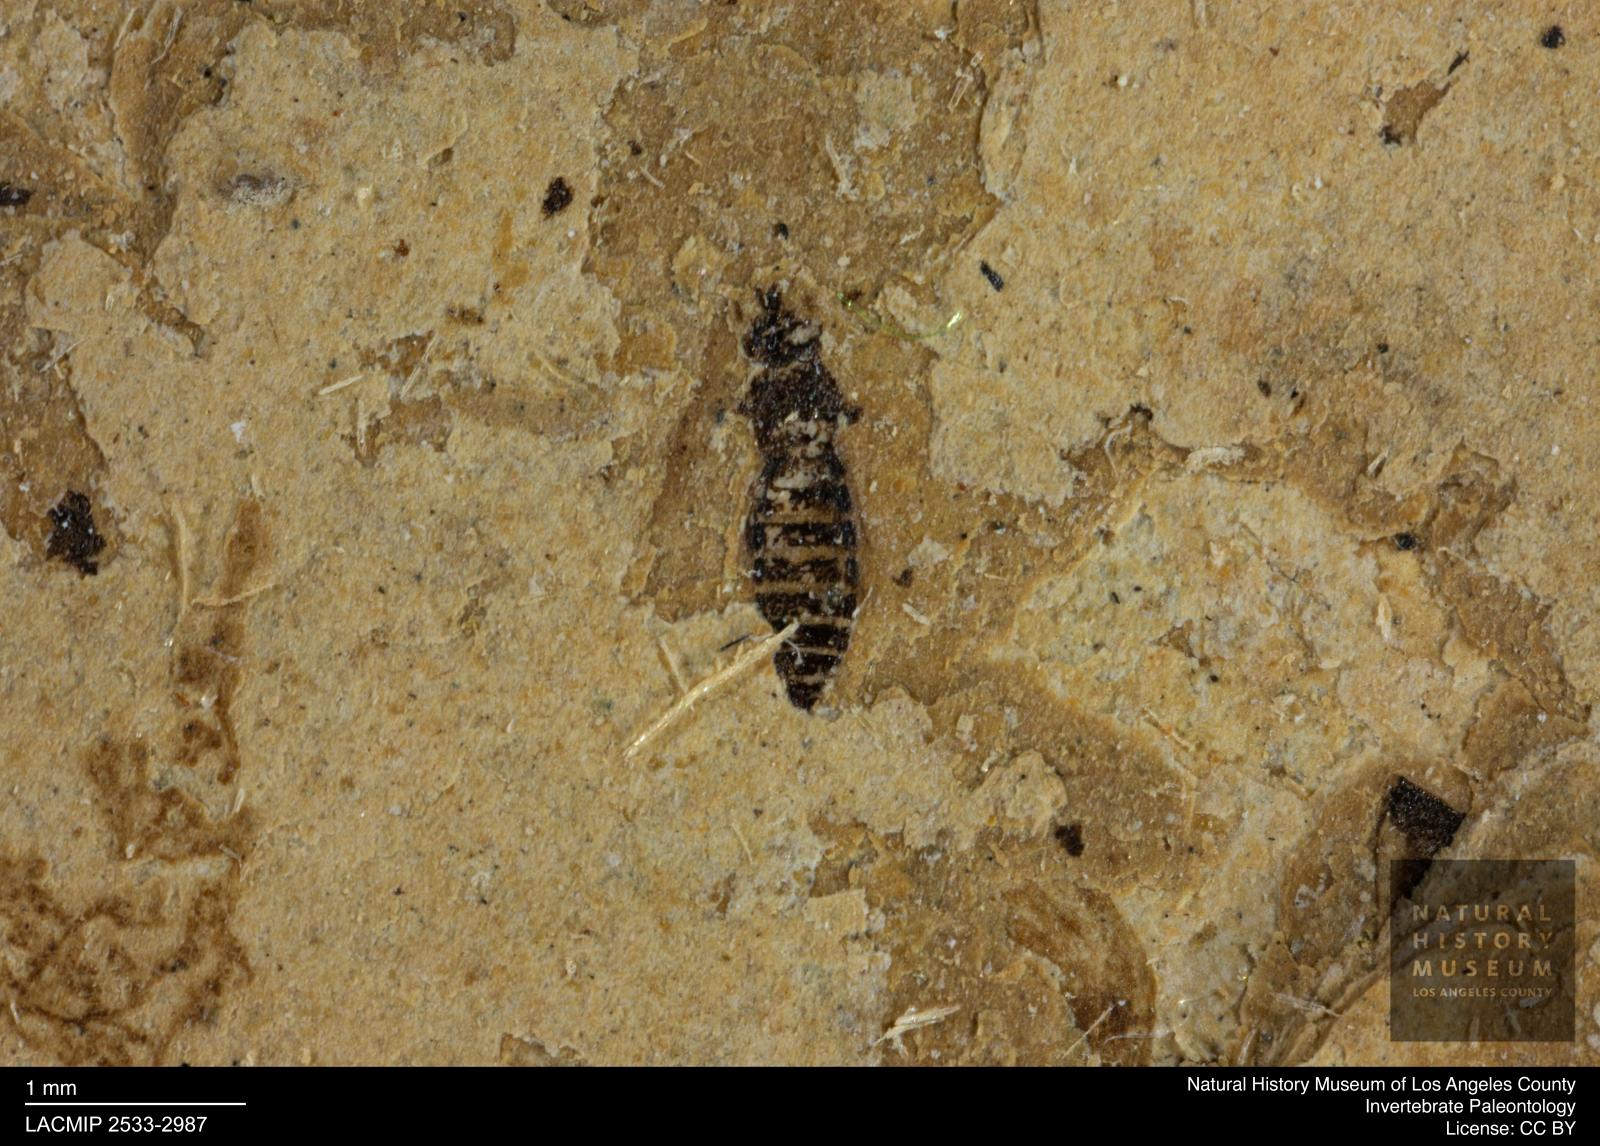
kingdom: Animalia
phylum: Arthropoda
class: Insecta
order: Thysanoptera
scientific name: Thysanoptera
